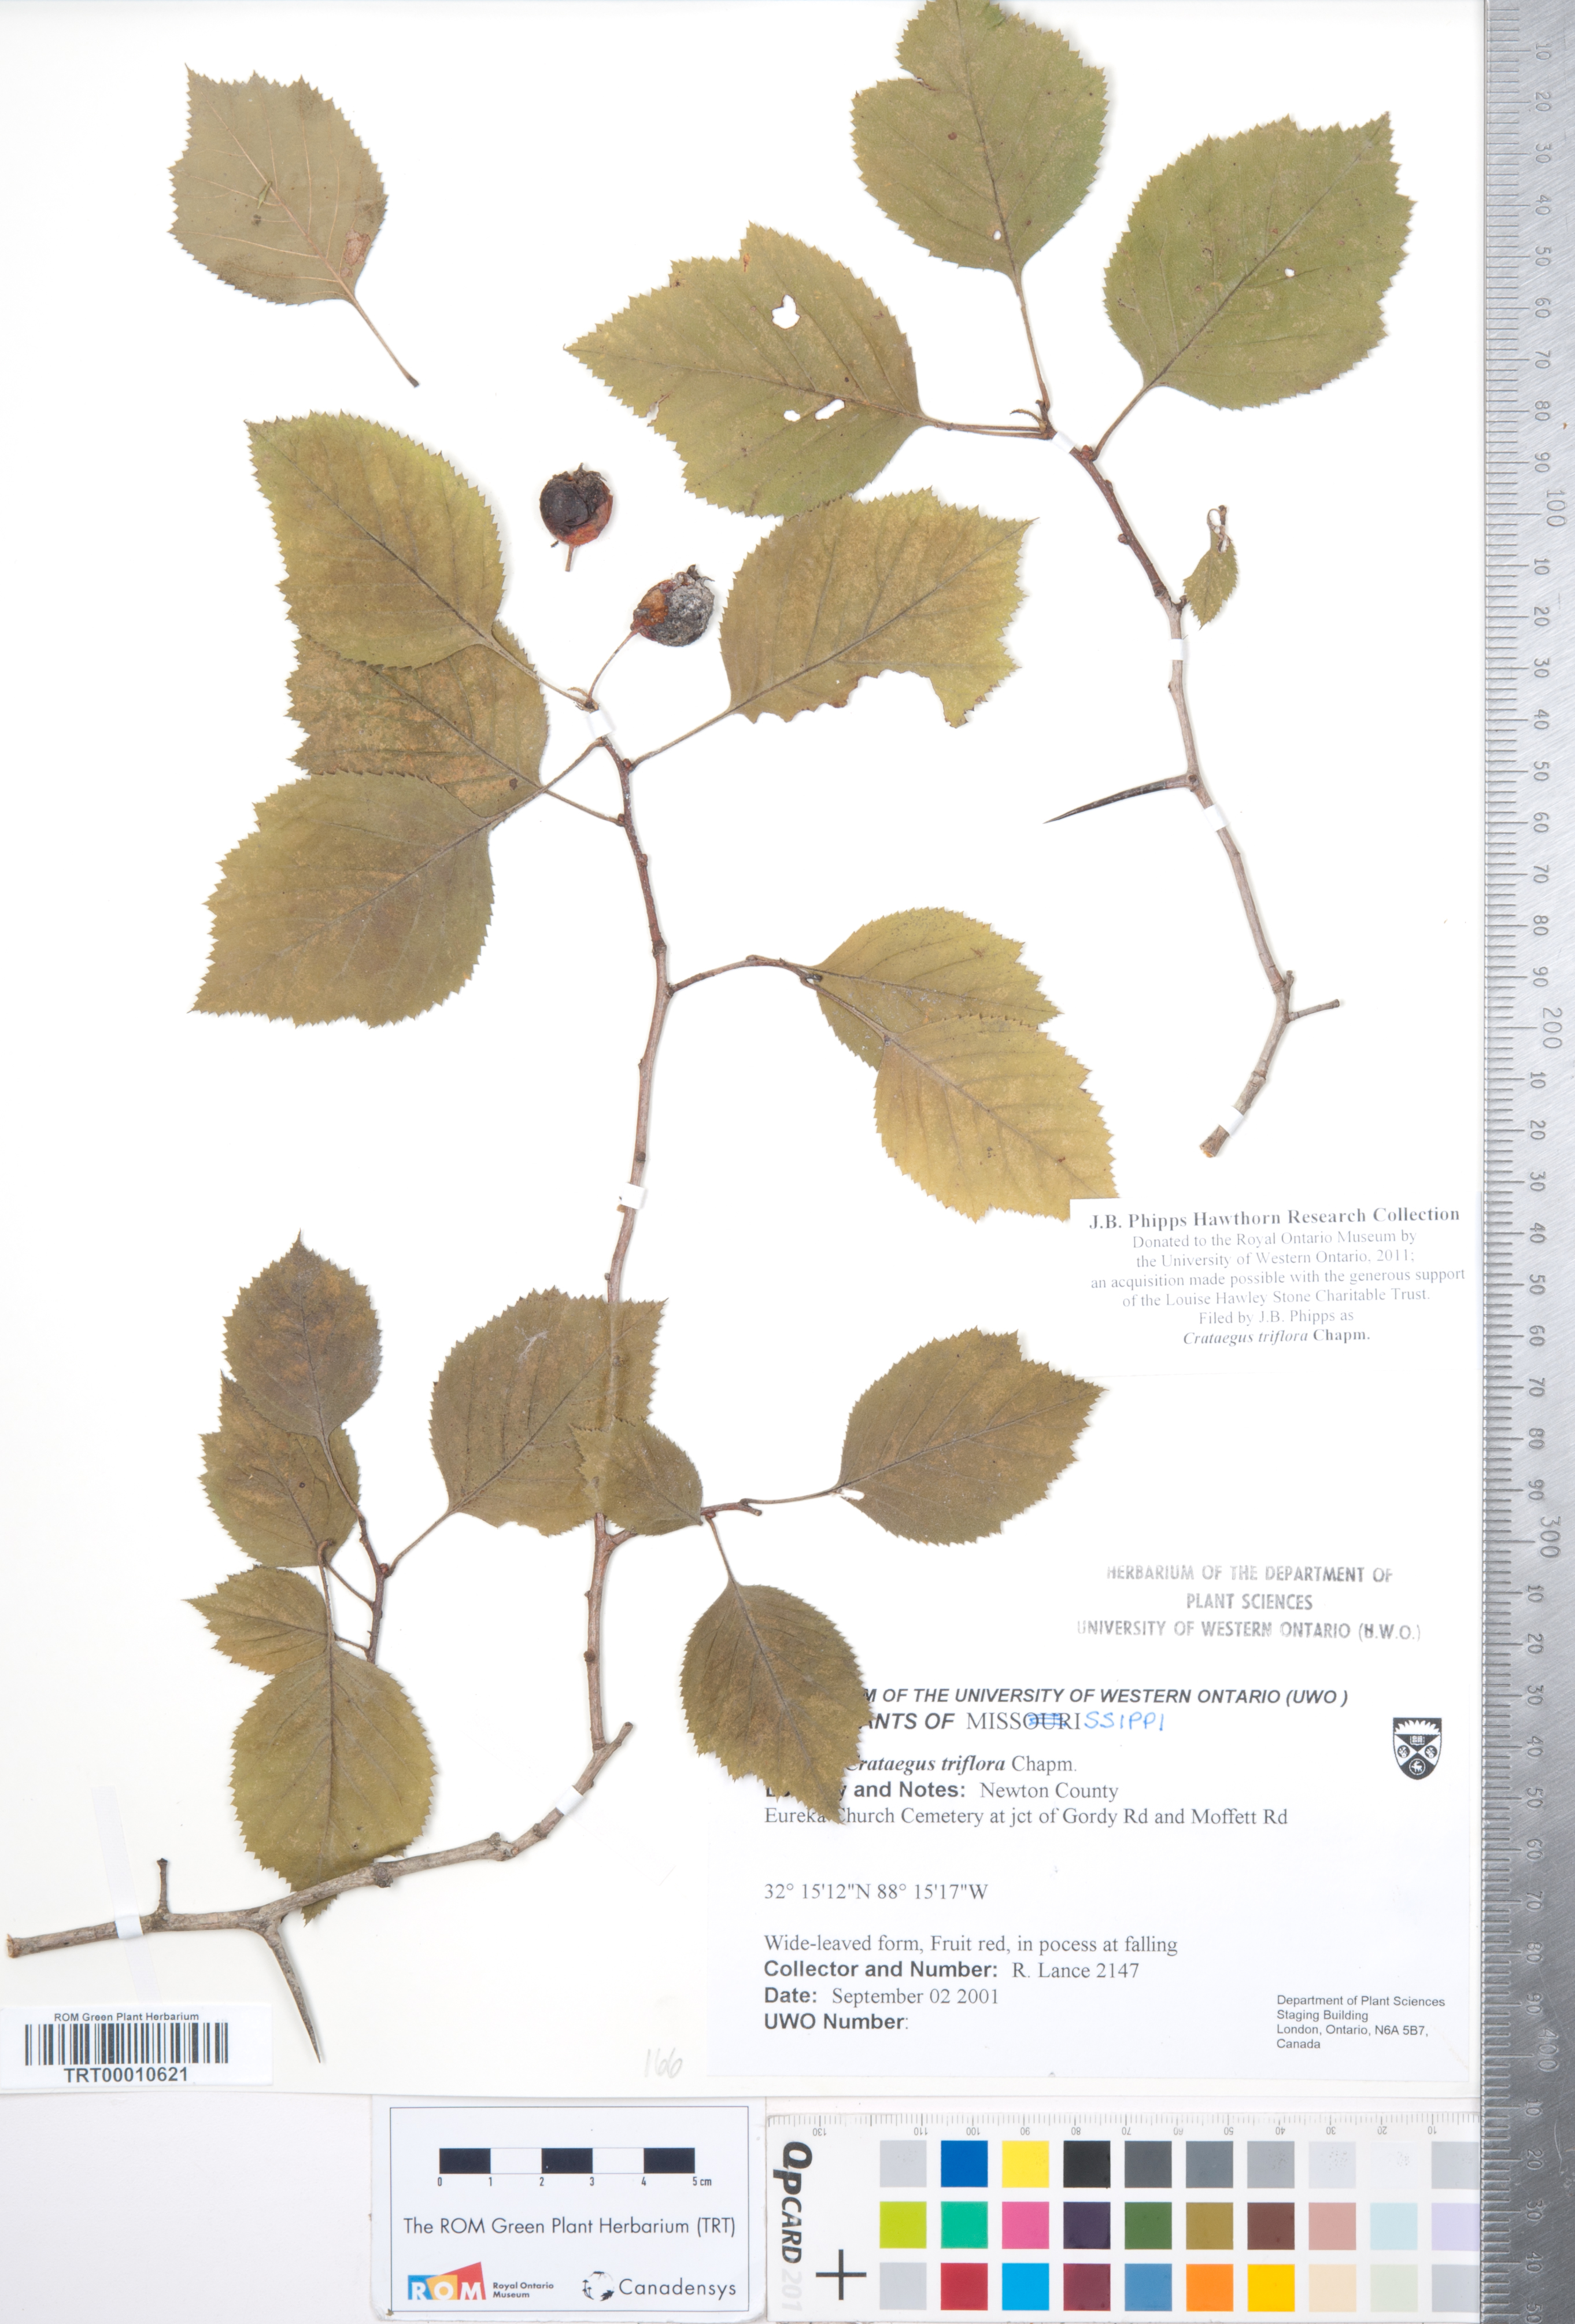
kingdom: Plantae
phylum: Tracheophyta
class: Magnoliopsida
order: Rosales
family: Rosaceae
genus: Crataegus
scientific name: Crataegus triflora
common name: Three-flower hawthorn
